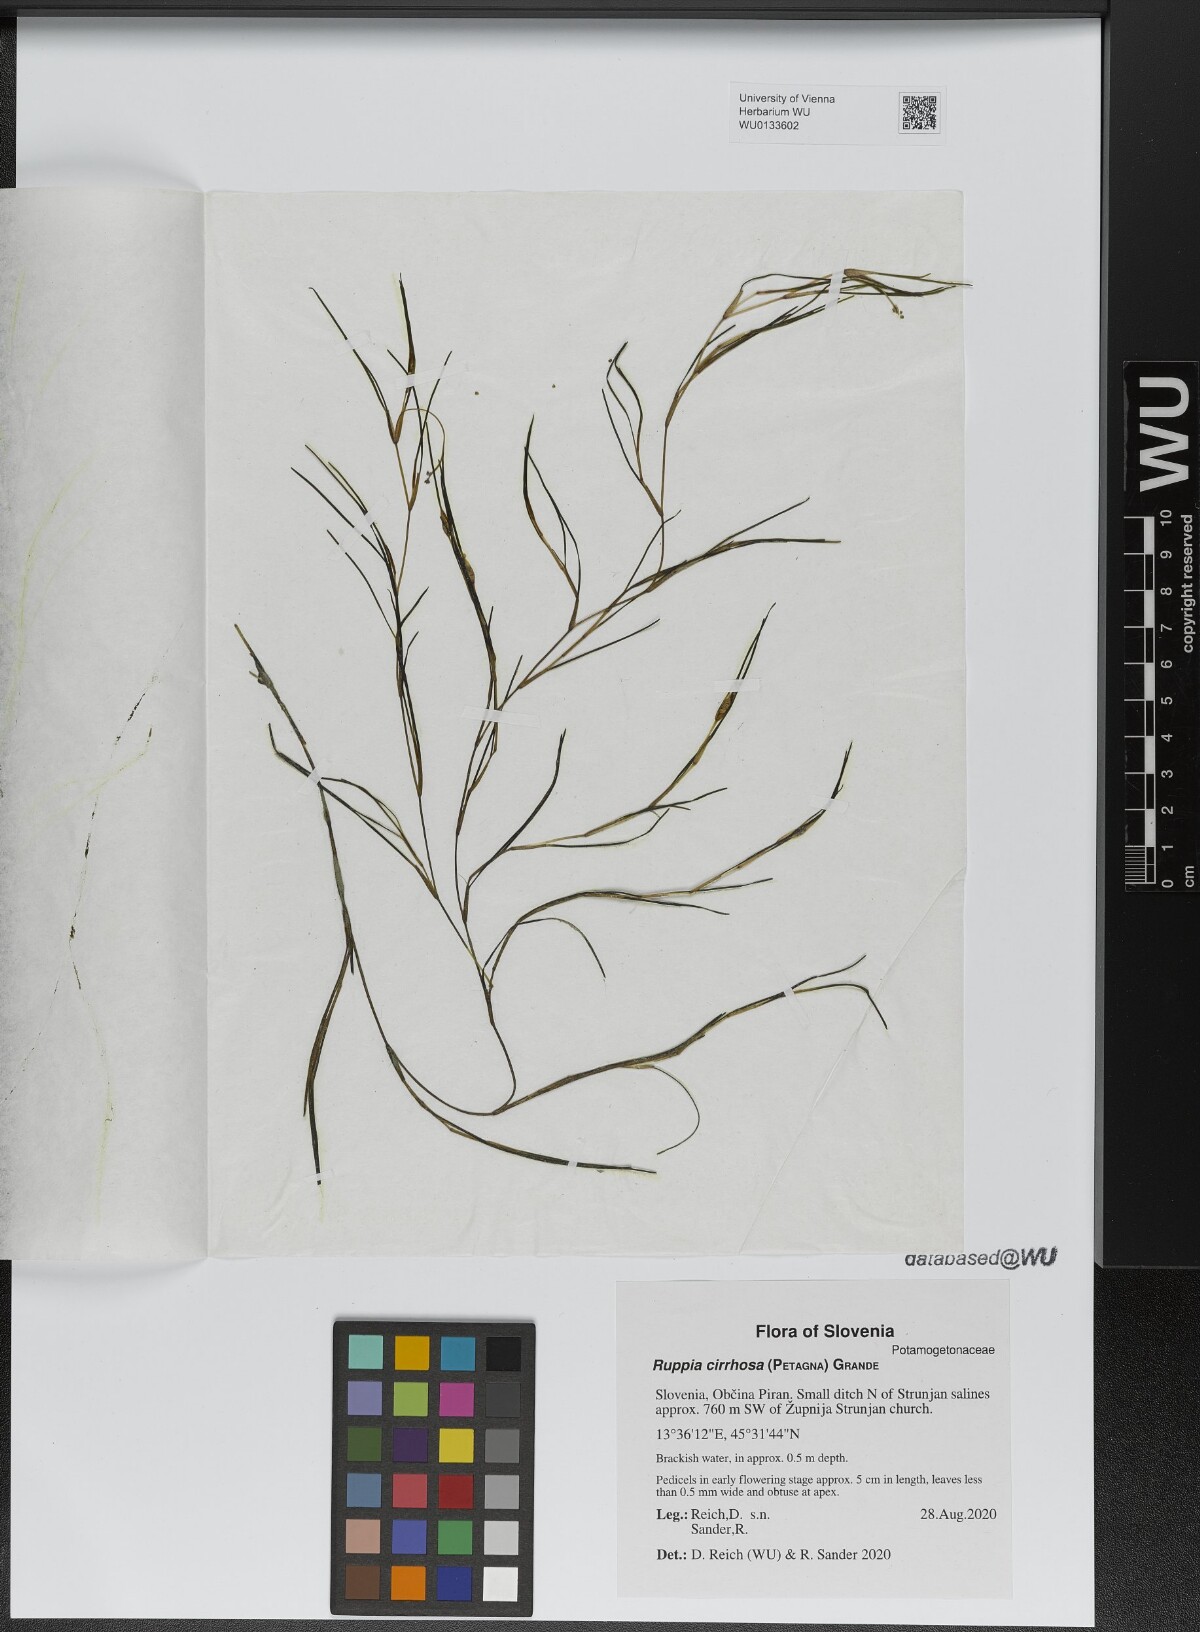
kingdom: Plantae
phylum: Tracheophyta
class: Liliopsida
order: Alismatales
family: Ruppiaceae
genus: Ruppia
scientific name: Ruppia cirrhosa
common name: Spiral tasselweed
